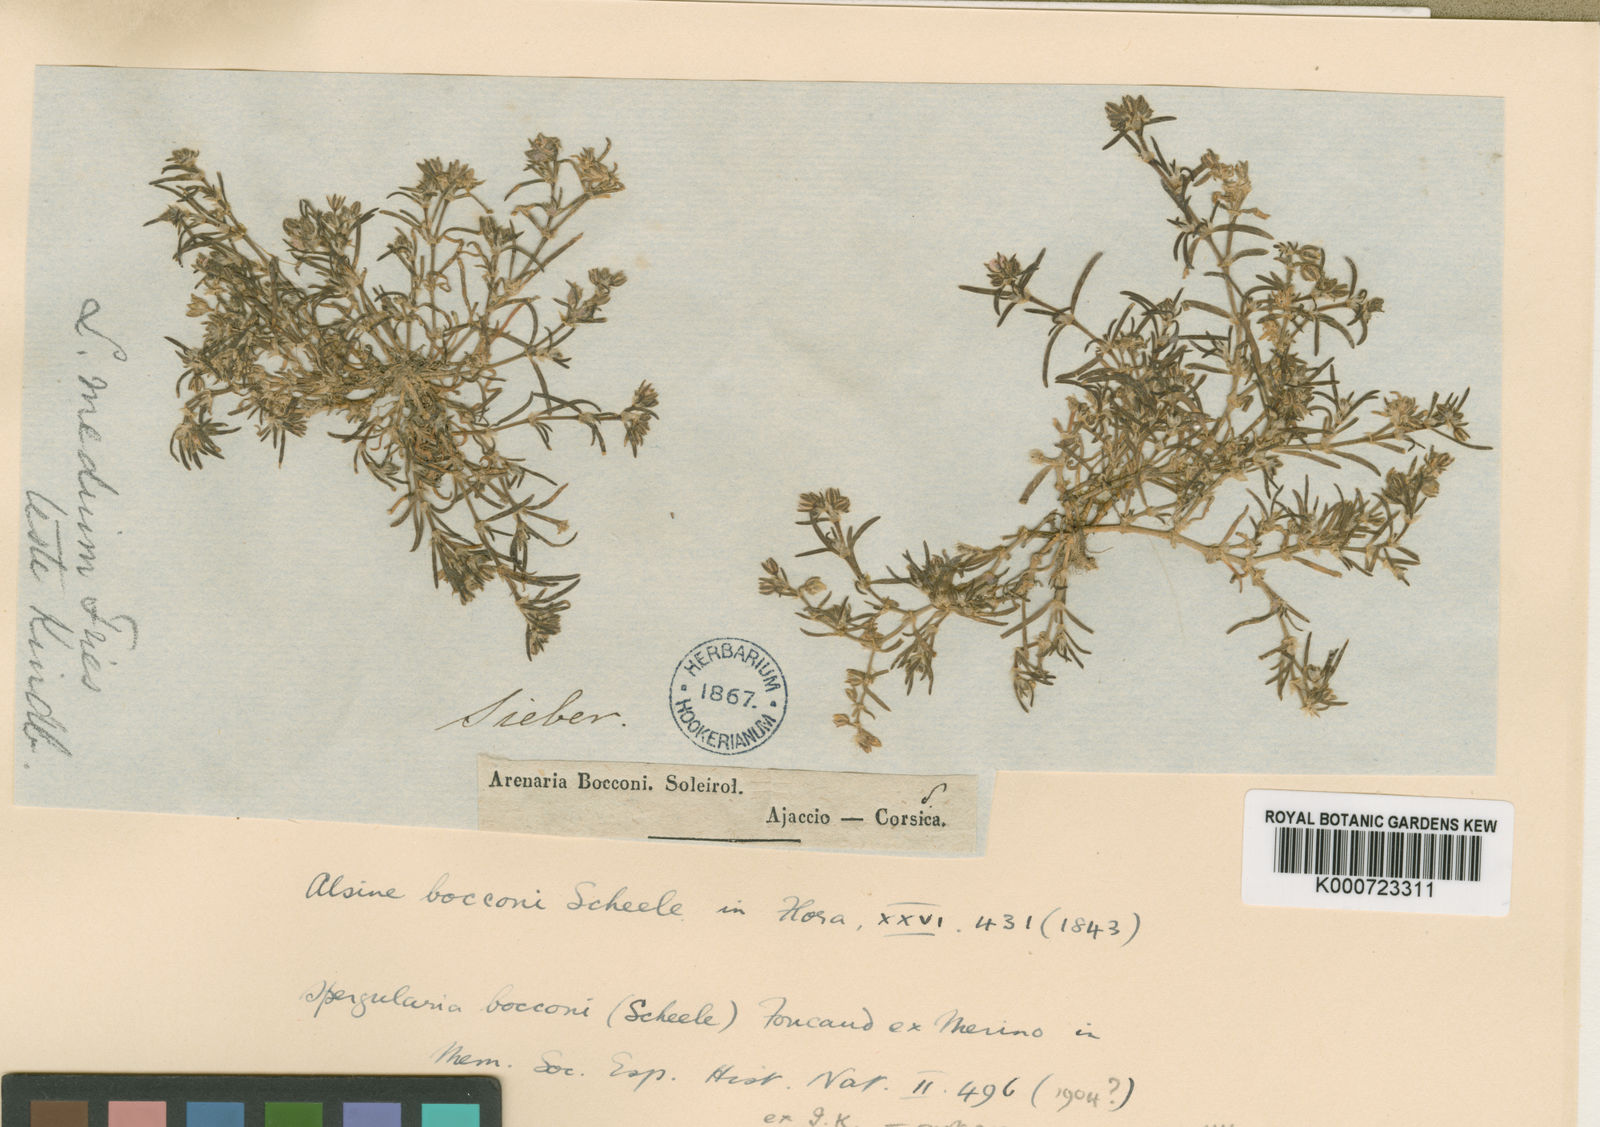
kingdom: Plantae
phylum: Tracheophyta
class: Magnoliopsida
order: Caryophyllales
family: Caryophyllaceae
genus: Spergularia
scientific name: Spergularia bocconei
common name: Greek sea-spurrey
